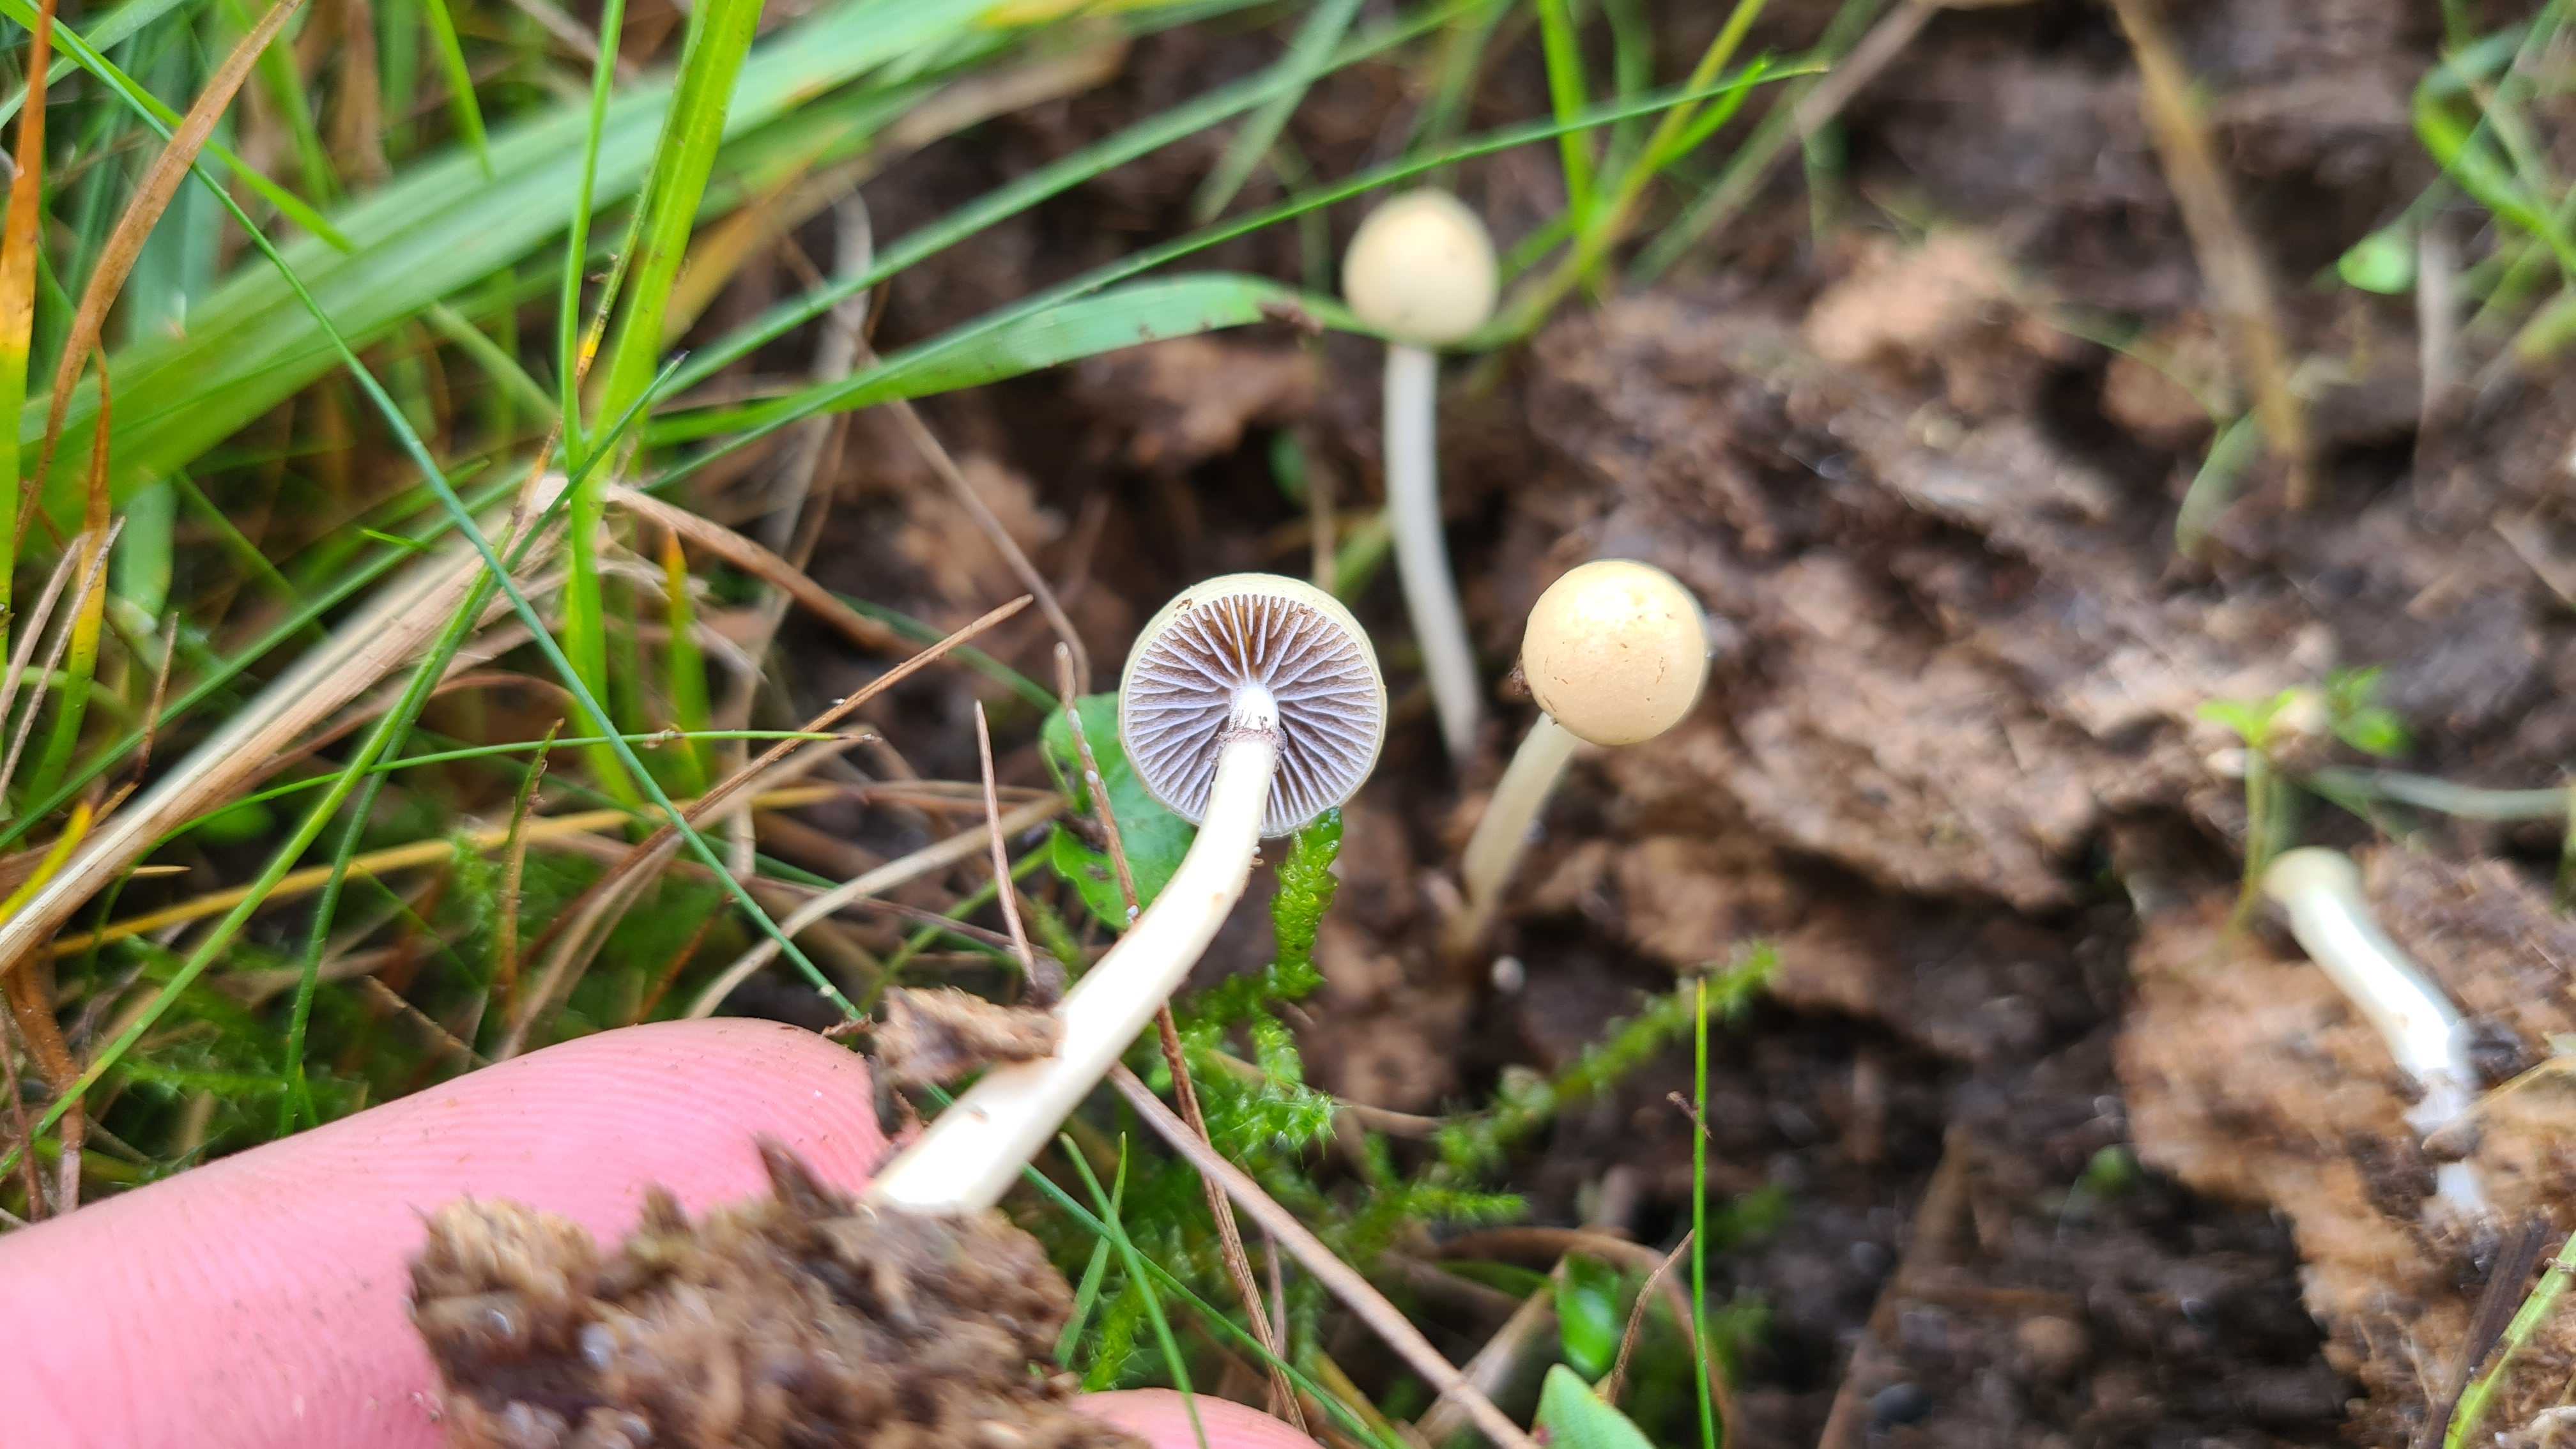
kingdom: Fungi
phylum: Basidiomycota
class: Agaricomycetes
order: Agaricales
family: Strophariaceae
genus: Protostropharia
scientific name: Protostropharia semiglobata
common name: halvkugleformet bredblad
